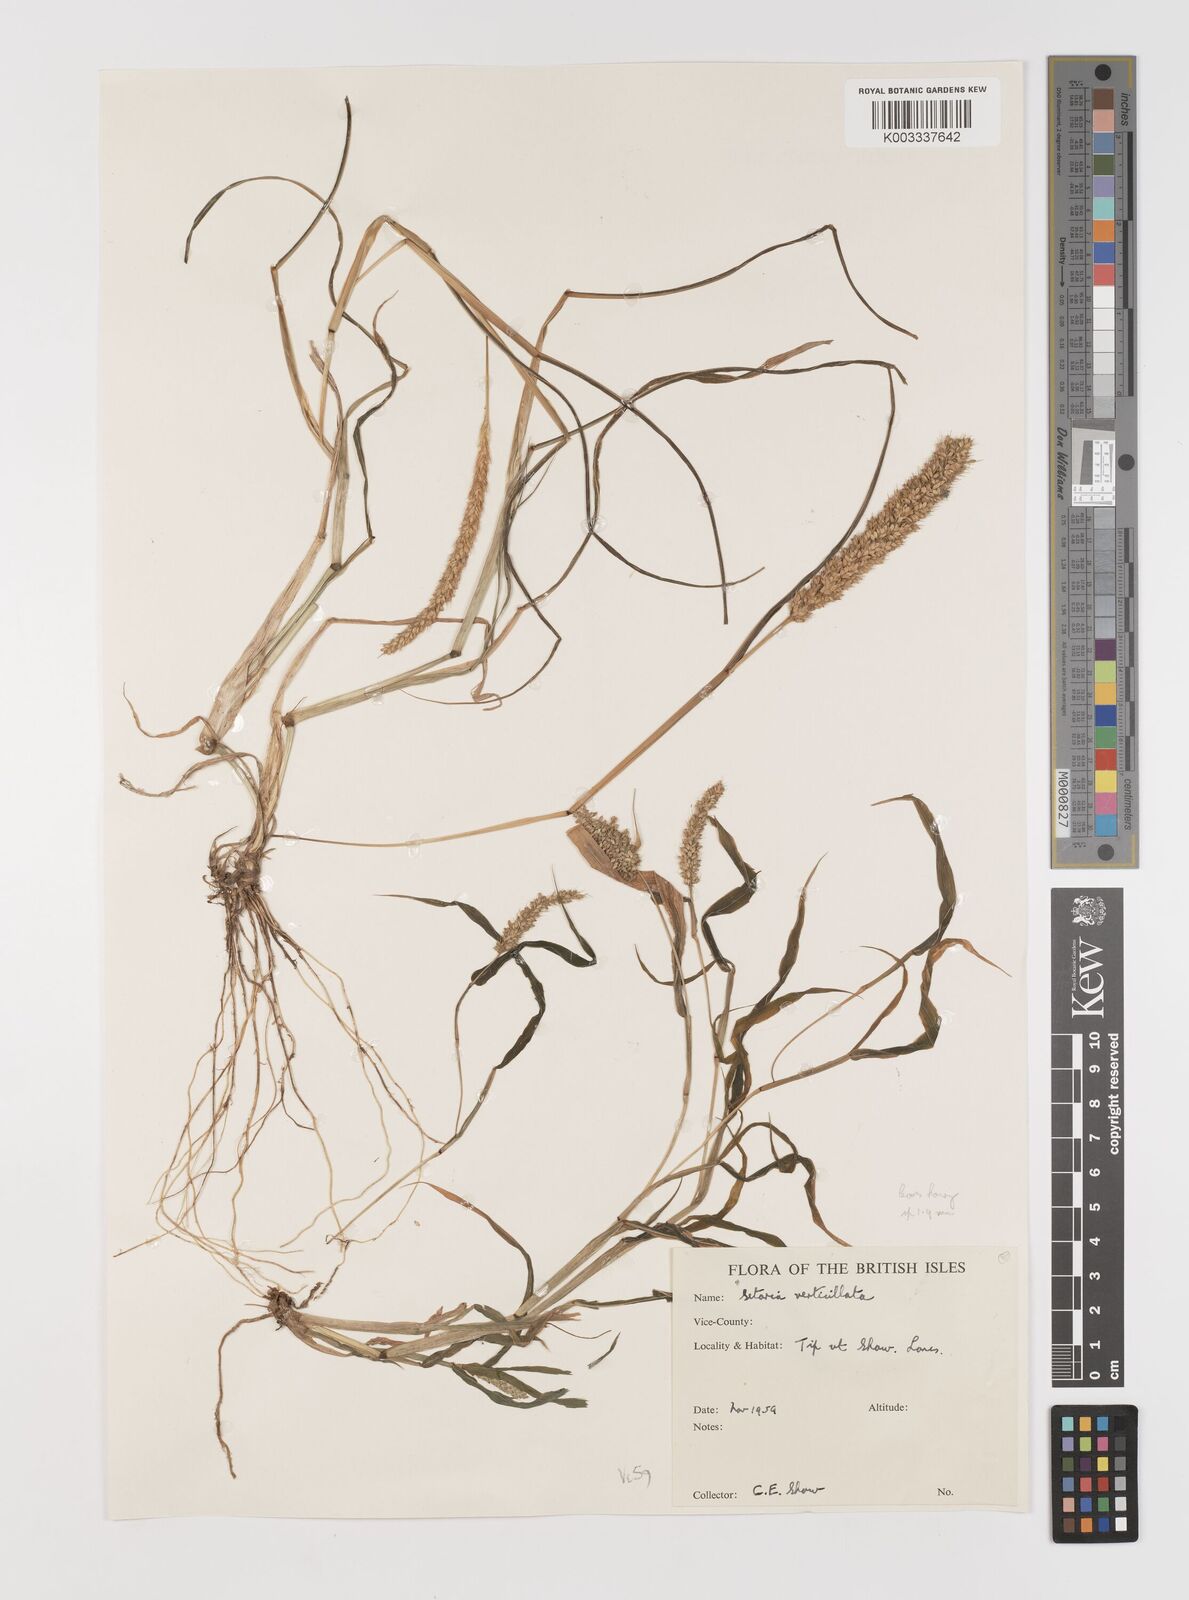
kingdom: Plantae
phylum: Tracheophyta
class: Liliopsida
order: Poales
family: Poaceae
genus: Setaria
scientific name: Setaria verticillata
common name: Hooked bristlegrass
